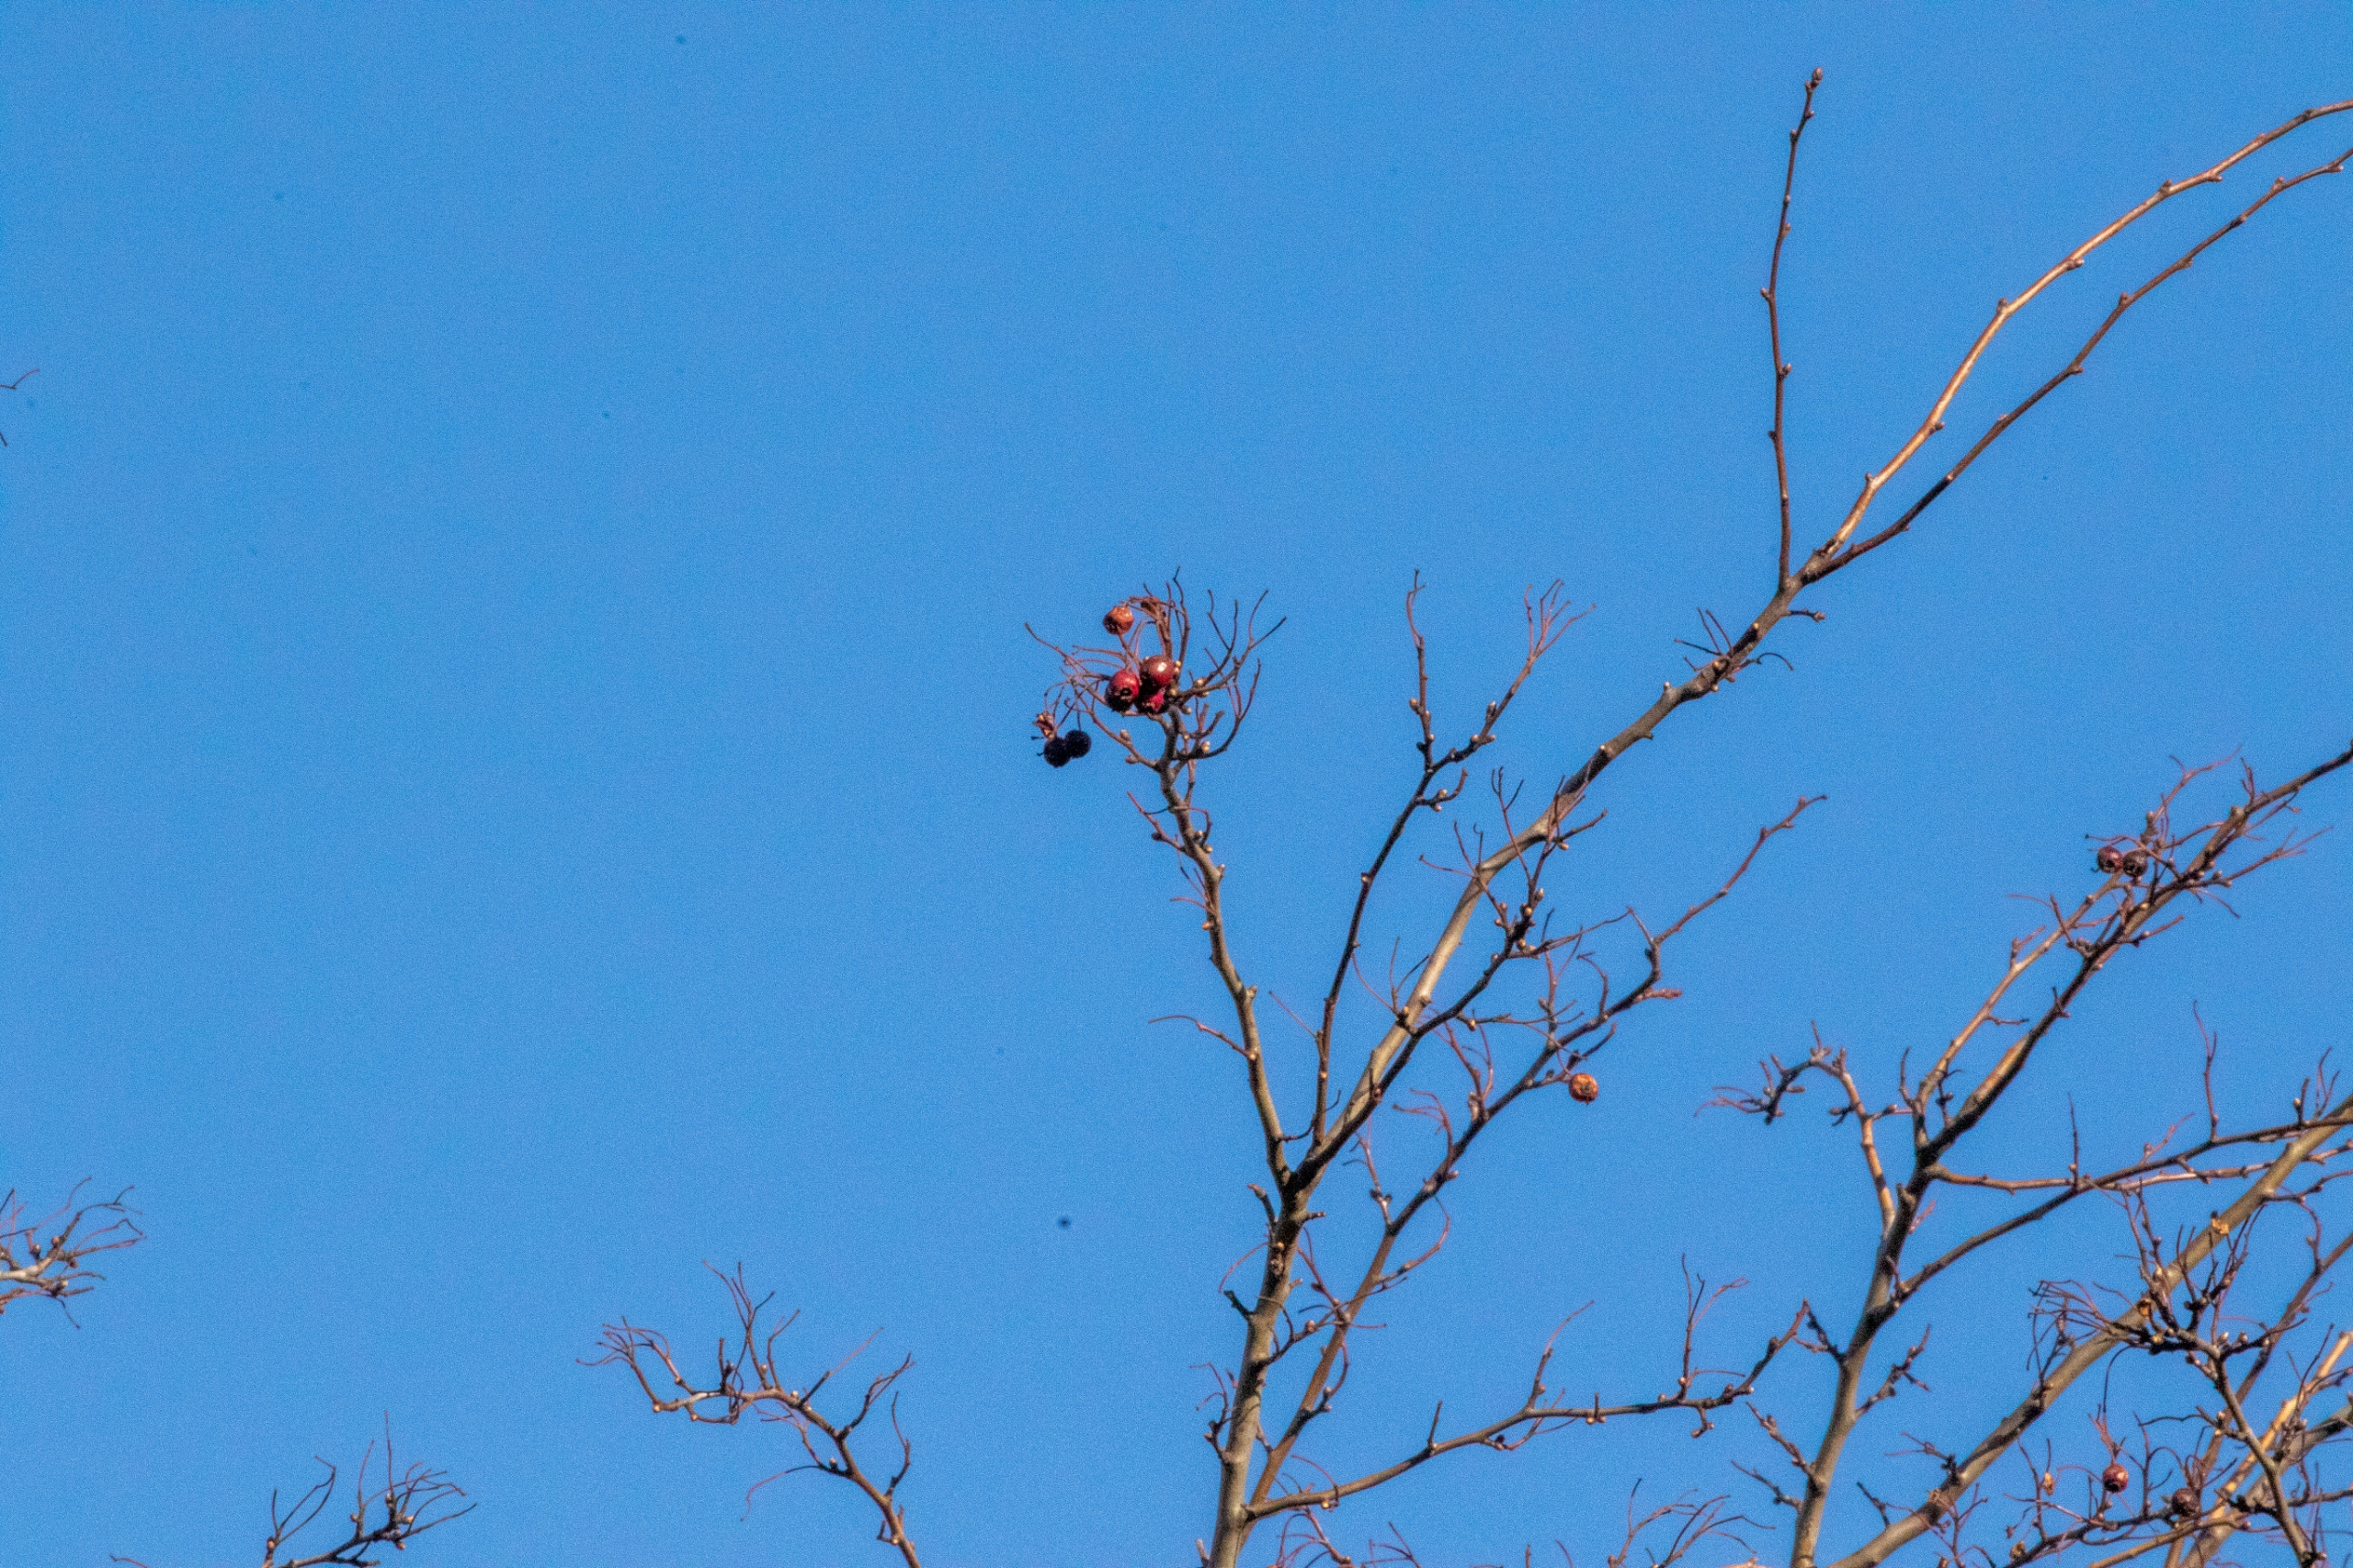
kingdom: Plantae
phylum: Tracheophyta
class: Magnoliopsida
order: Rosales
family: Rosaceae
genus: Crataegus
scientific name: Crataegus
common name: Hvidtjørnslægten
